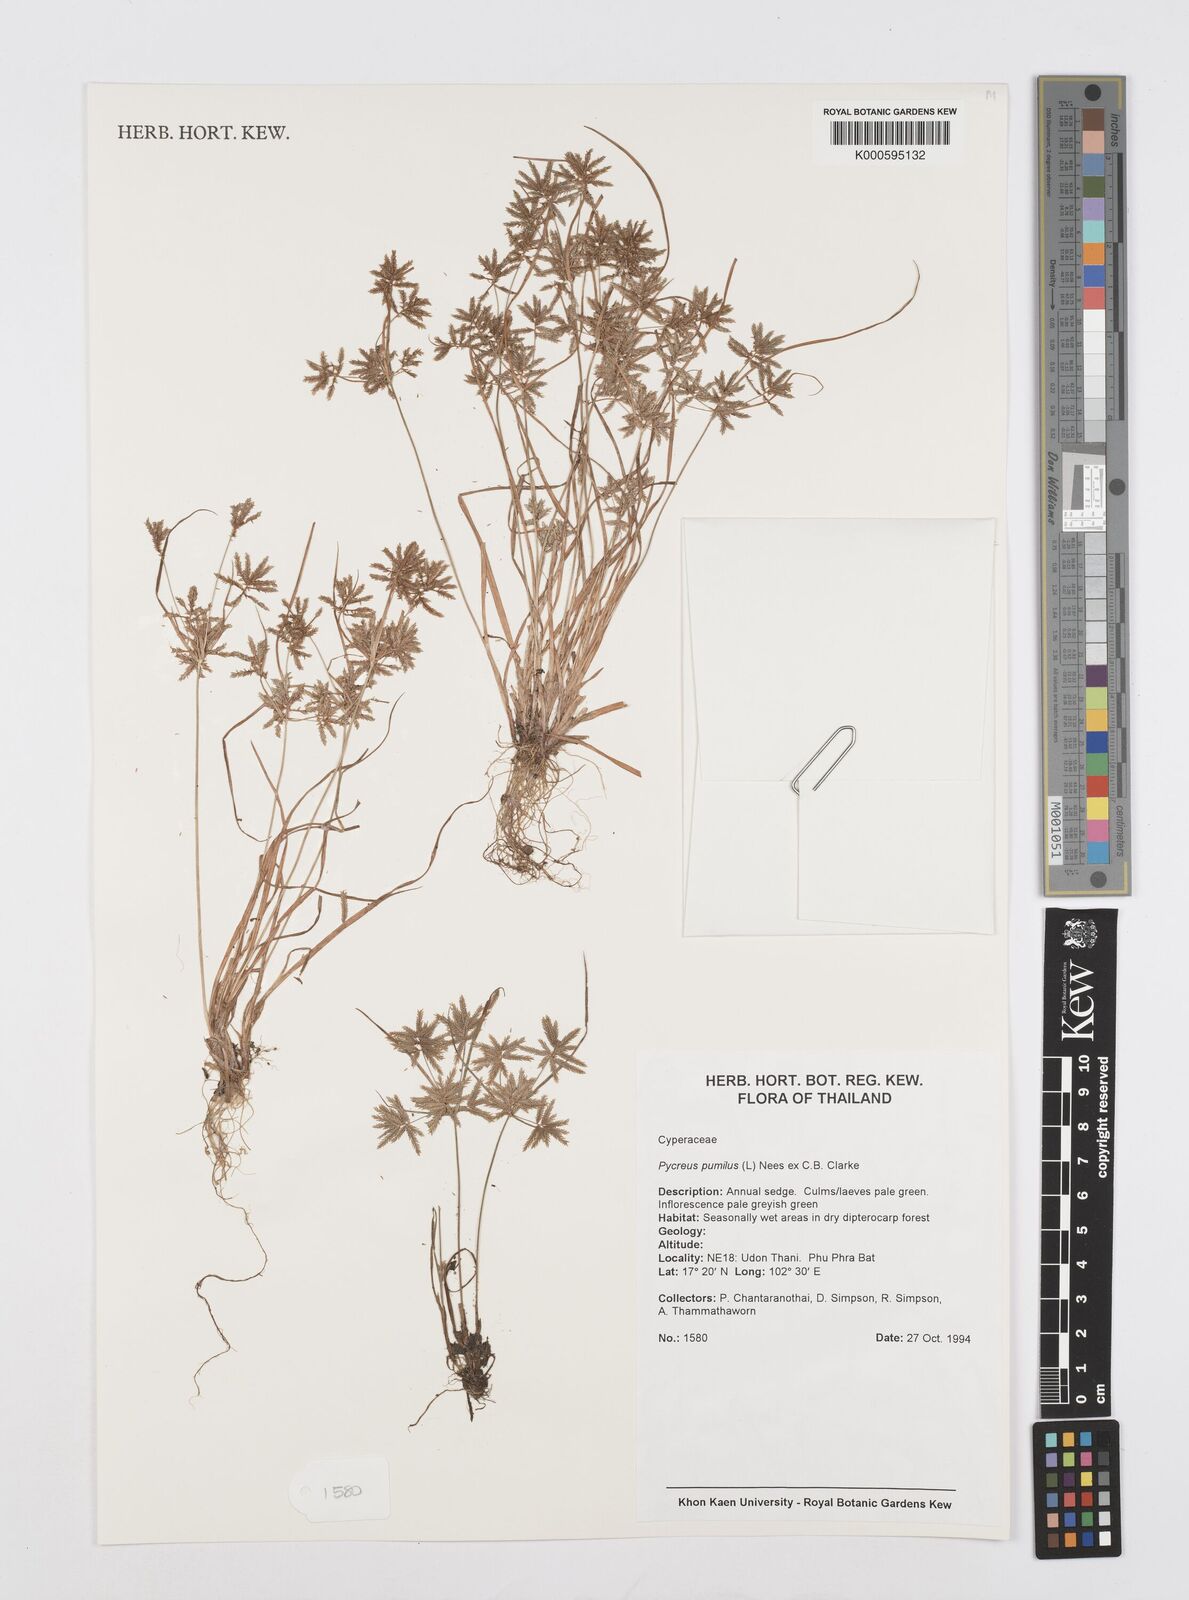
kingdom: Plantae
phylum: Tracheophyta
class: Liliopsida
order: Poales
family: Cyperaceae
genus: Cyperus
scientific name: Cyperus pumilus
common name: Low flatsedge
